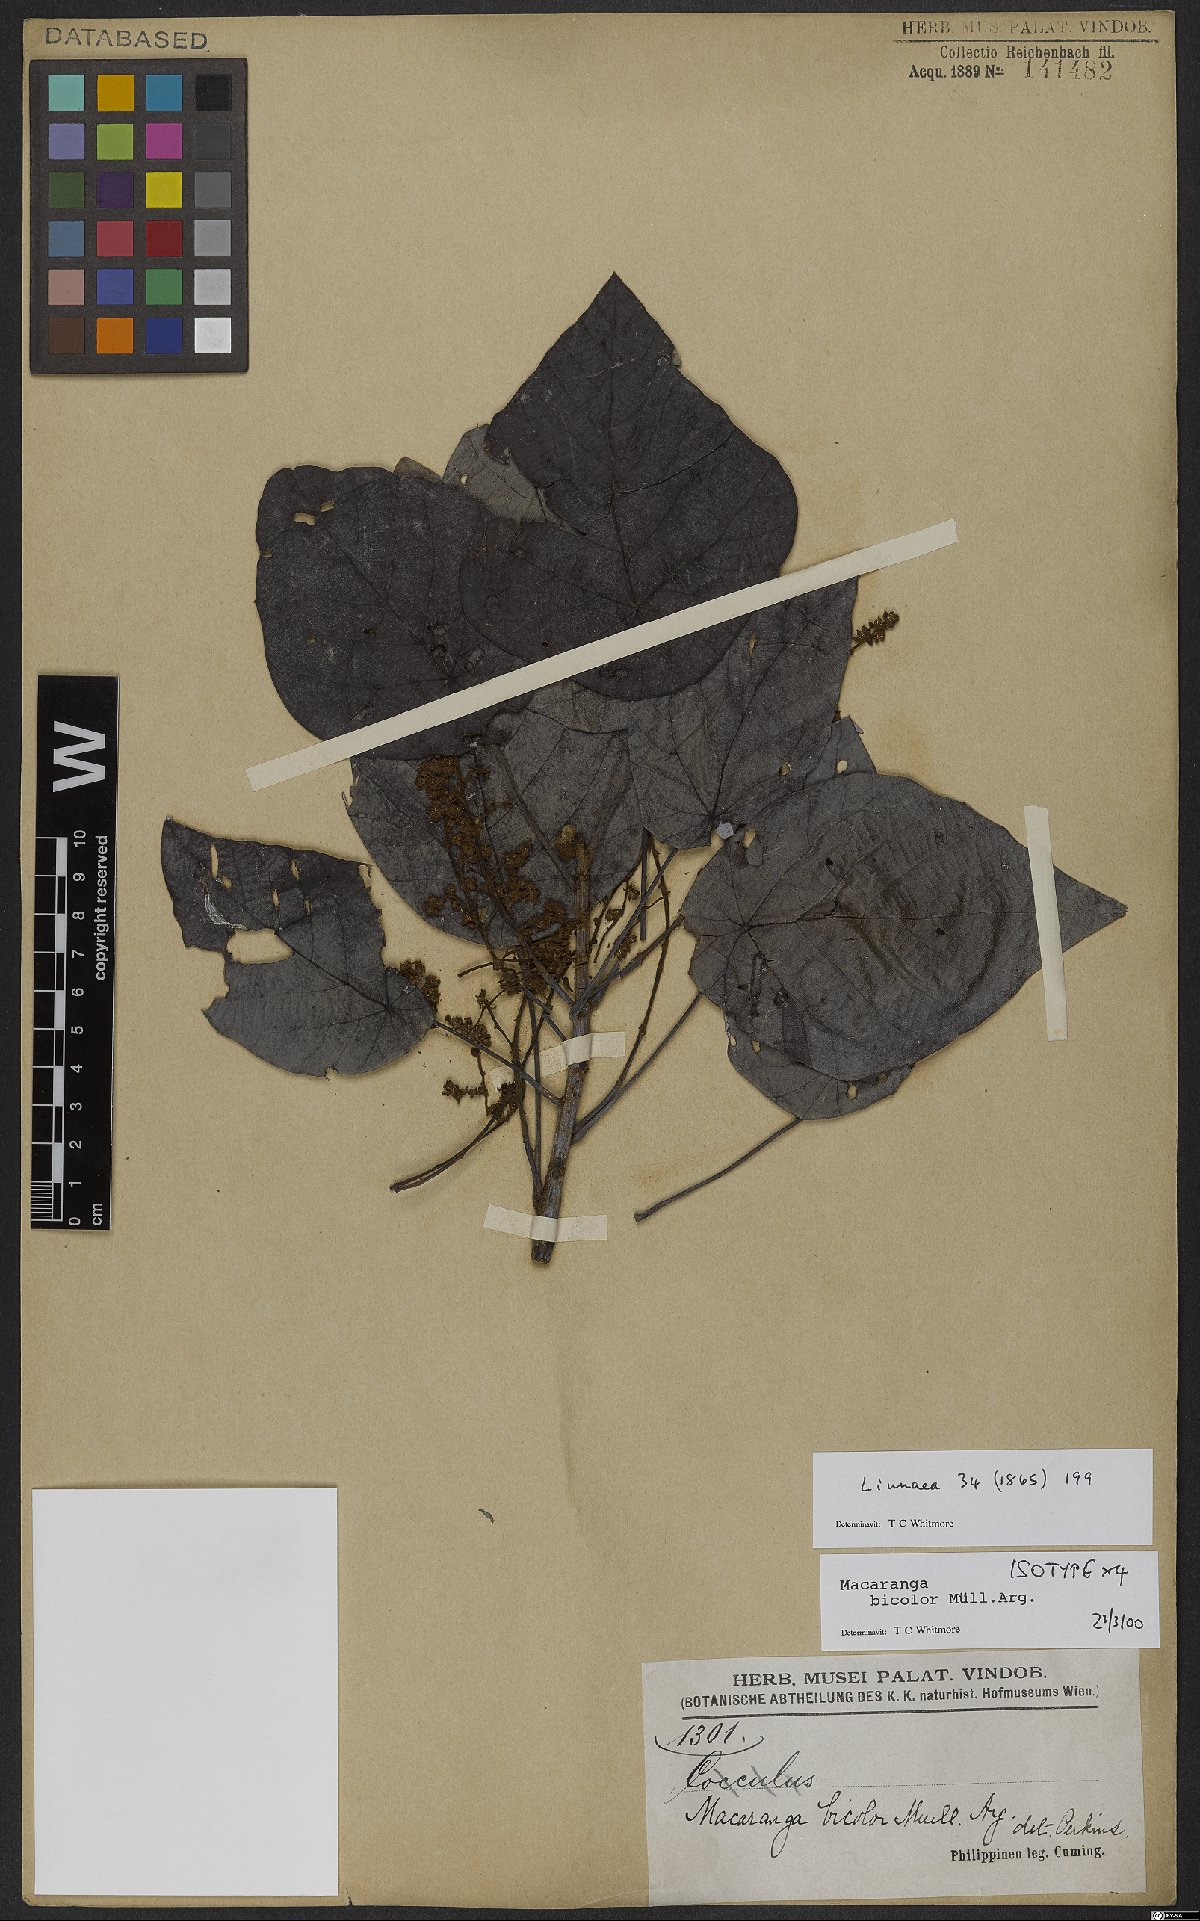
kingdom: Plantae
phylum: Tracheophyta
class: Magnoliopsida
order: Malpighiales
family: Euphorbiaceae
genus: Macaranga
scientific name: Macaranga bicolor
